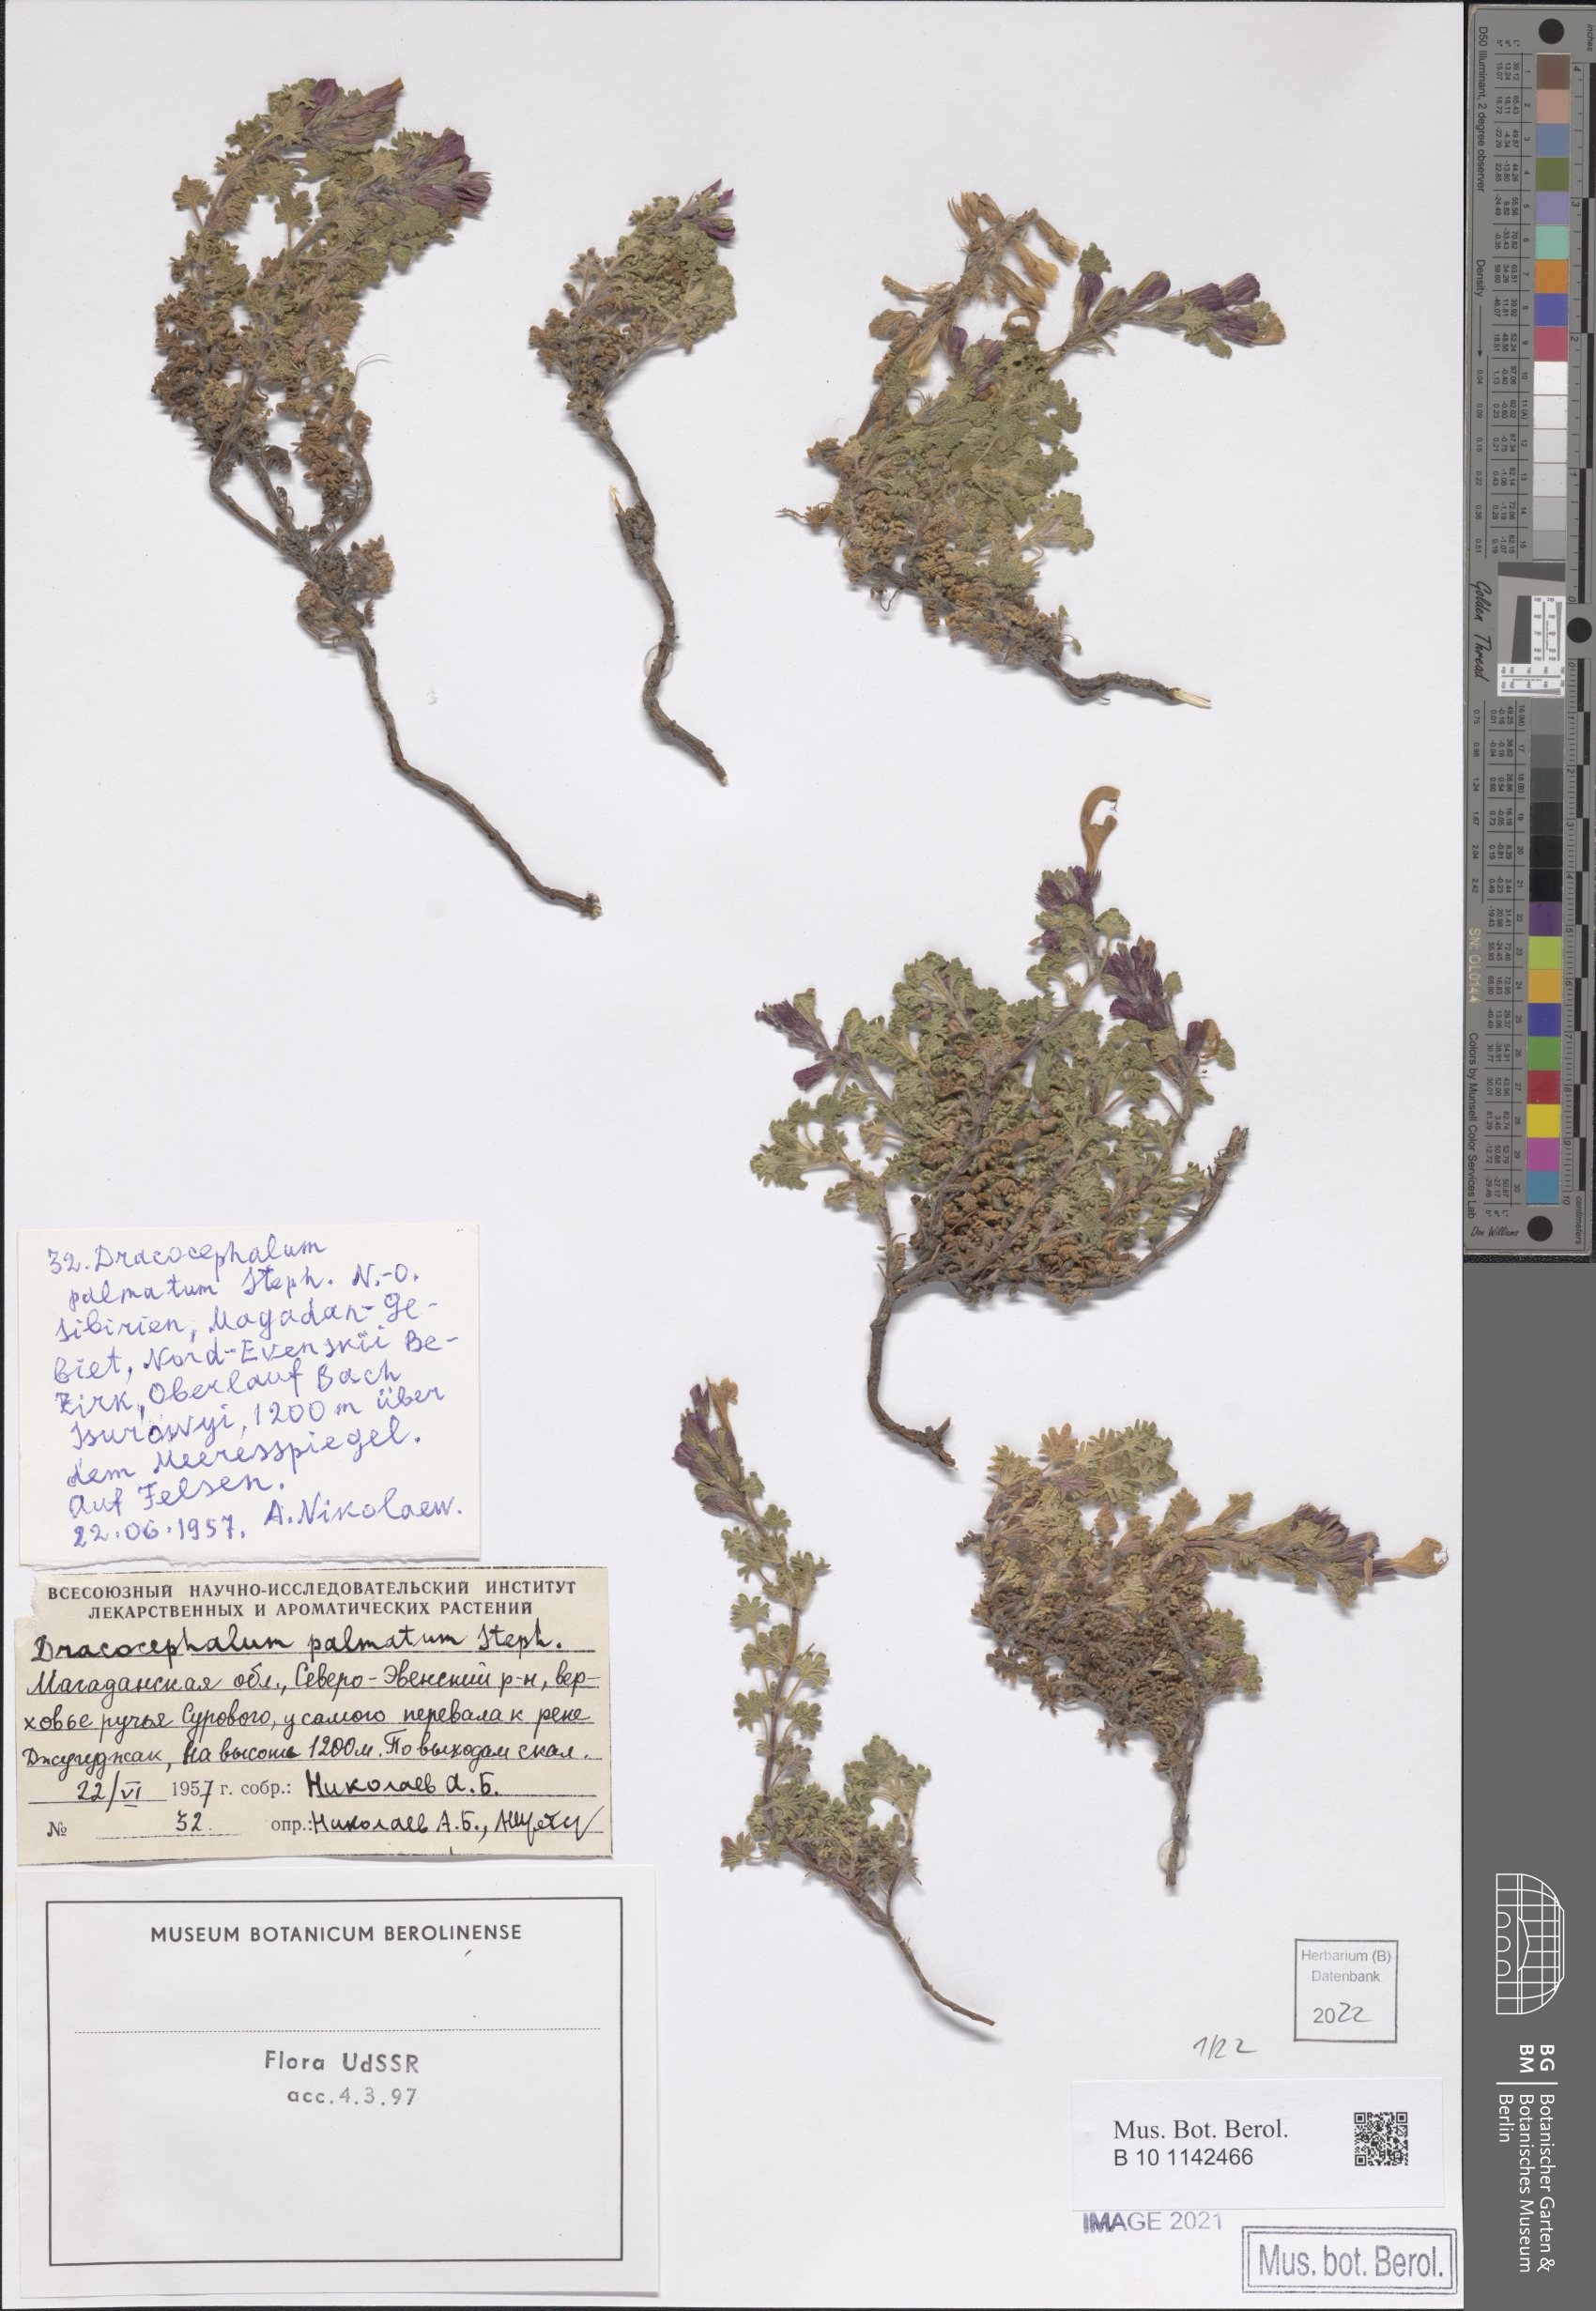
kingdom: Plantae
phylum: Tracheophyta
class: Magnoliopsida
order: Lamiales
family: Lamiaceae
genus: Dracocephalum
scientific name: Dracocephalum palmatum
